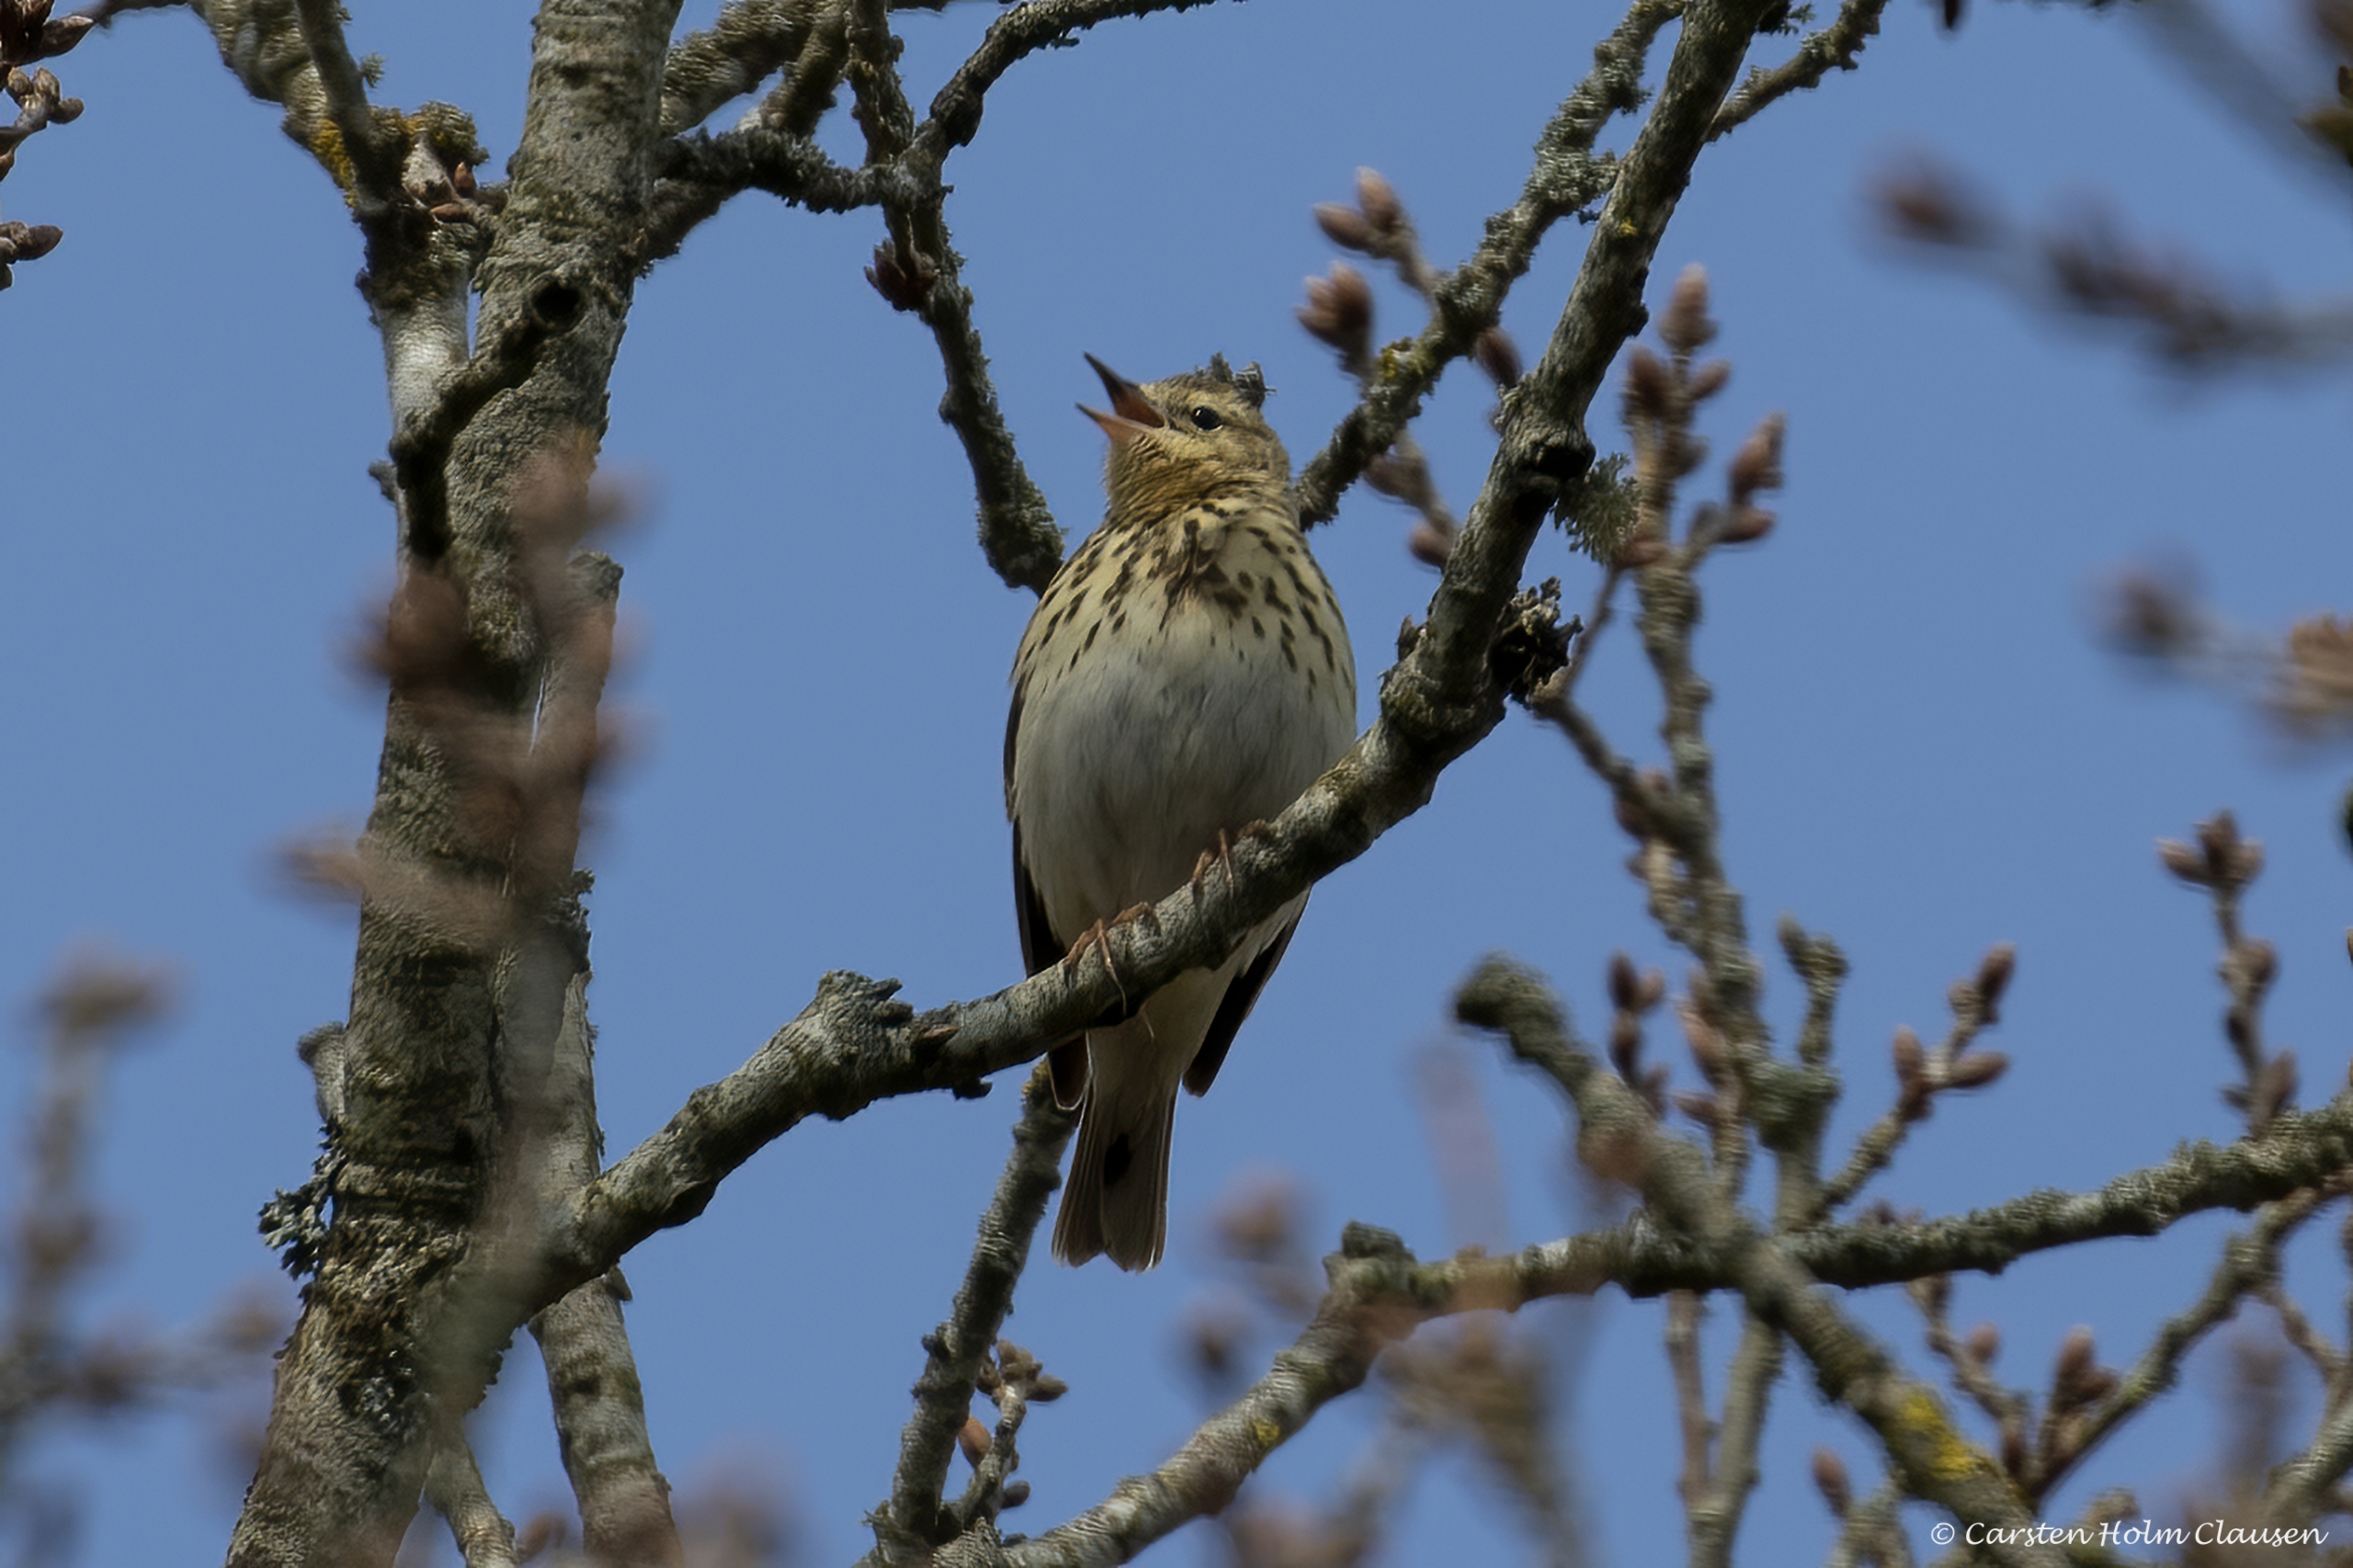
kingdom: Animalia
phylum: Chordata
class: Aves
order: Passeriformes
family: Motacillidae
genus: Anthus
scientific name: Anthus trivialis
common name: Skovpiber
